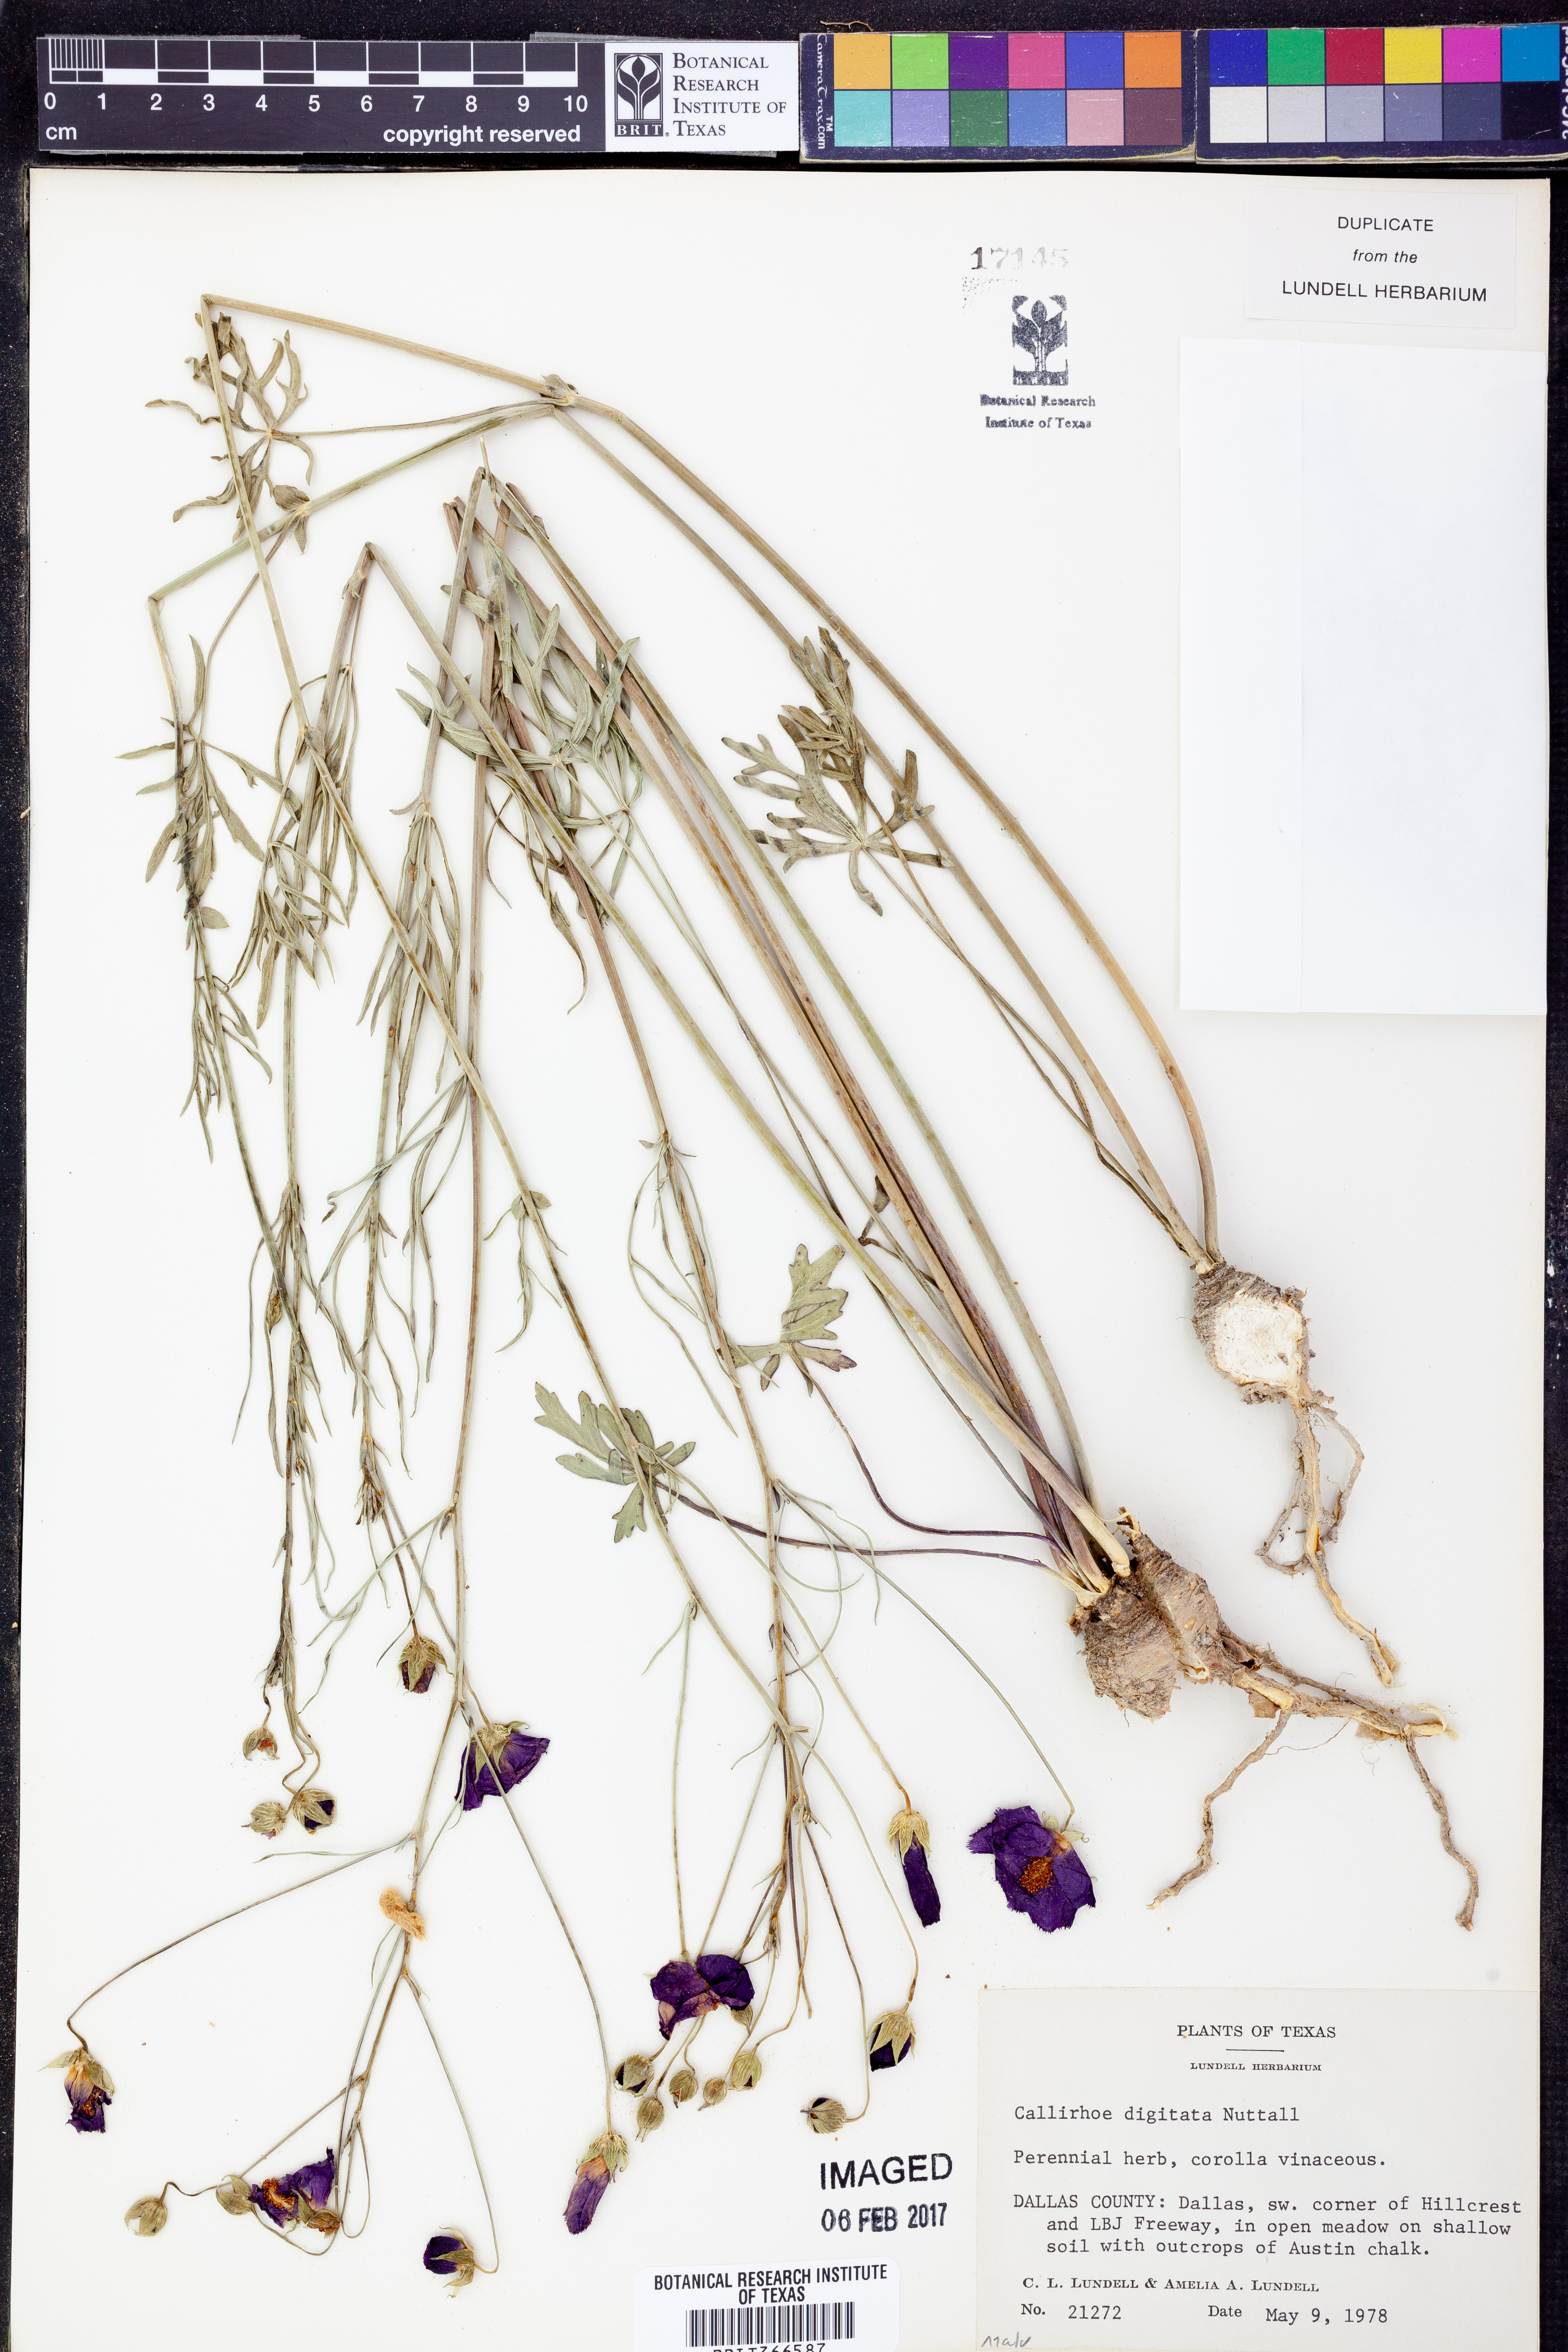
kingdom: Plantae
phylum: Tracheophyta
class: Magnoliopsida
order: Malvales
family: Malvaceae
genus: Callirhoe
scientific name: Callirhoe digitata
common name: Finger poppy-mallow
